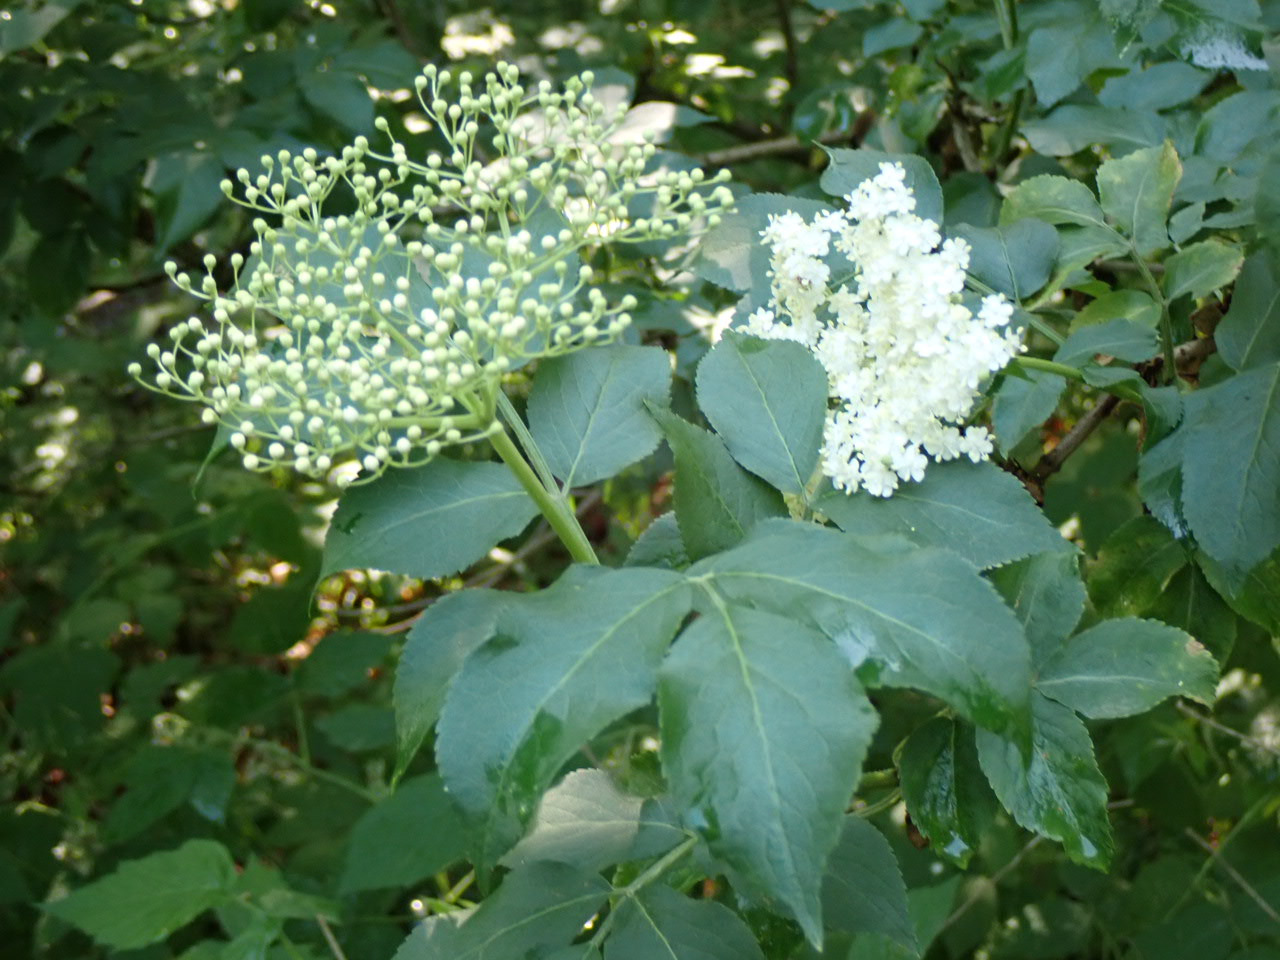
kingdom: Plantae
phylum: Tracheophyta
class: Magnoliopsida
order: Dipsacales
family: Viburnaceae
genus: Sambucus
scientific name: Sambucus nigra
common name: Almindelig hyld
